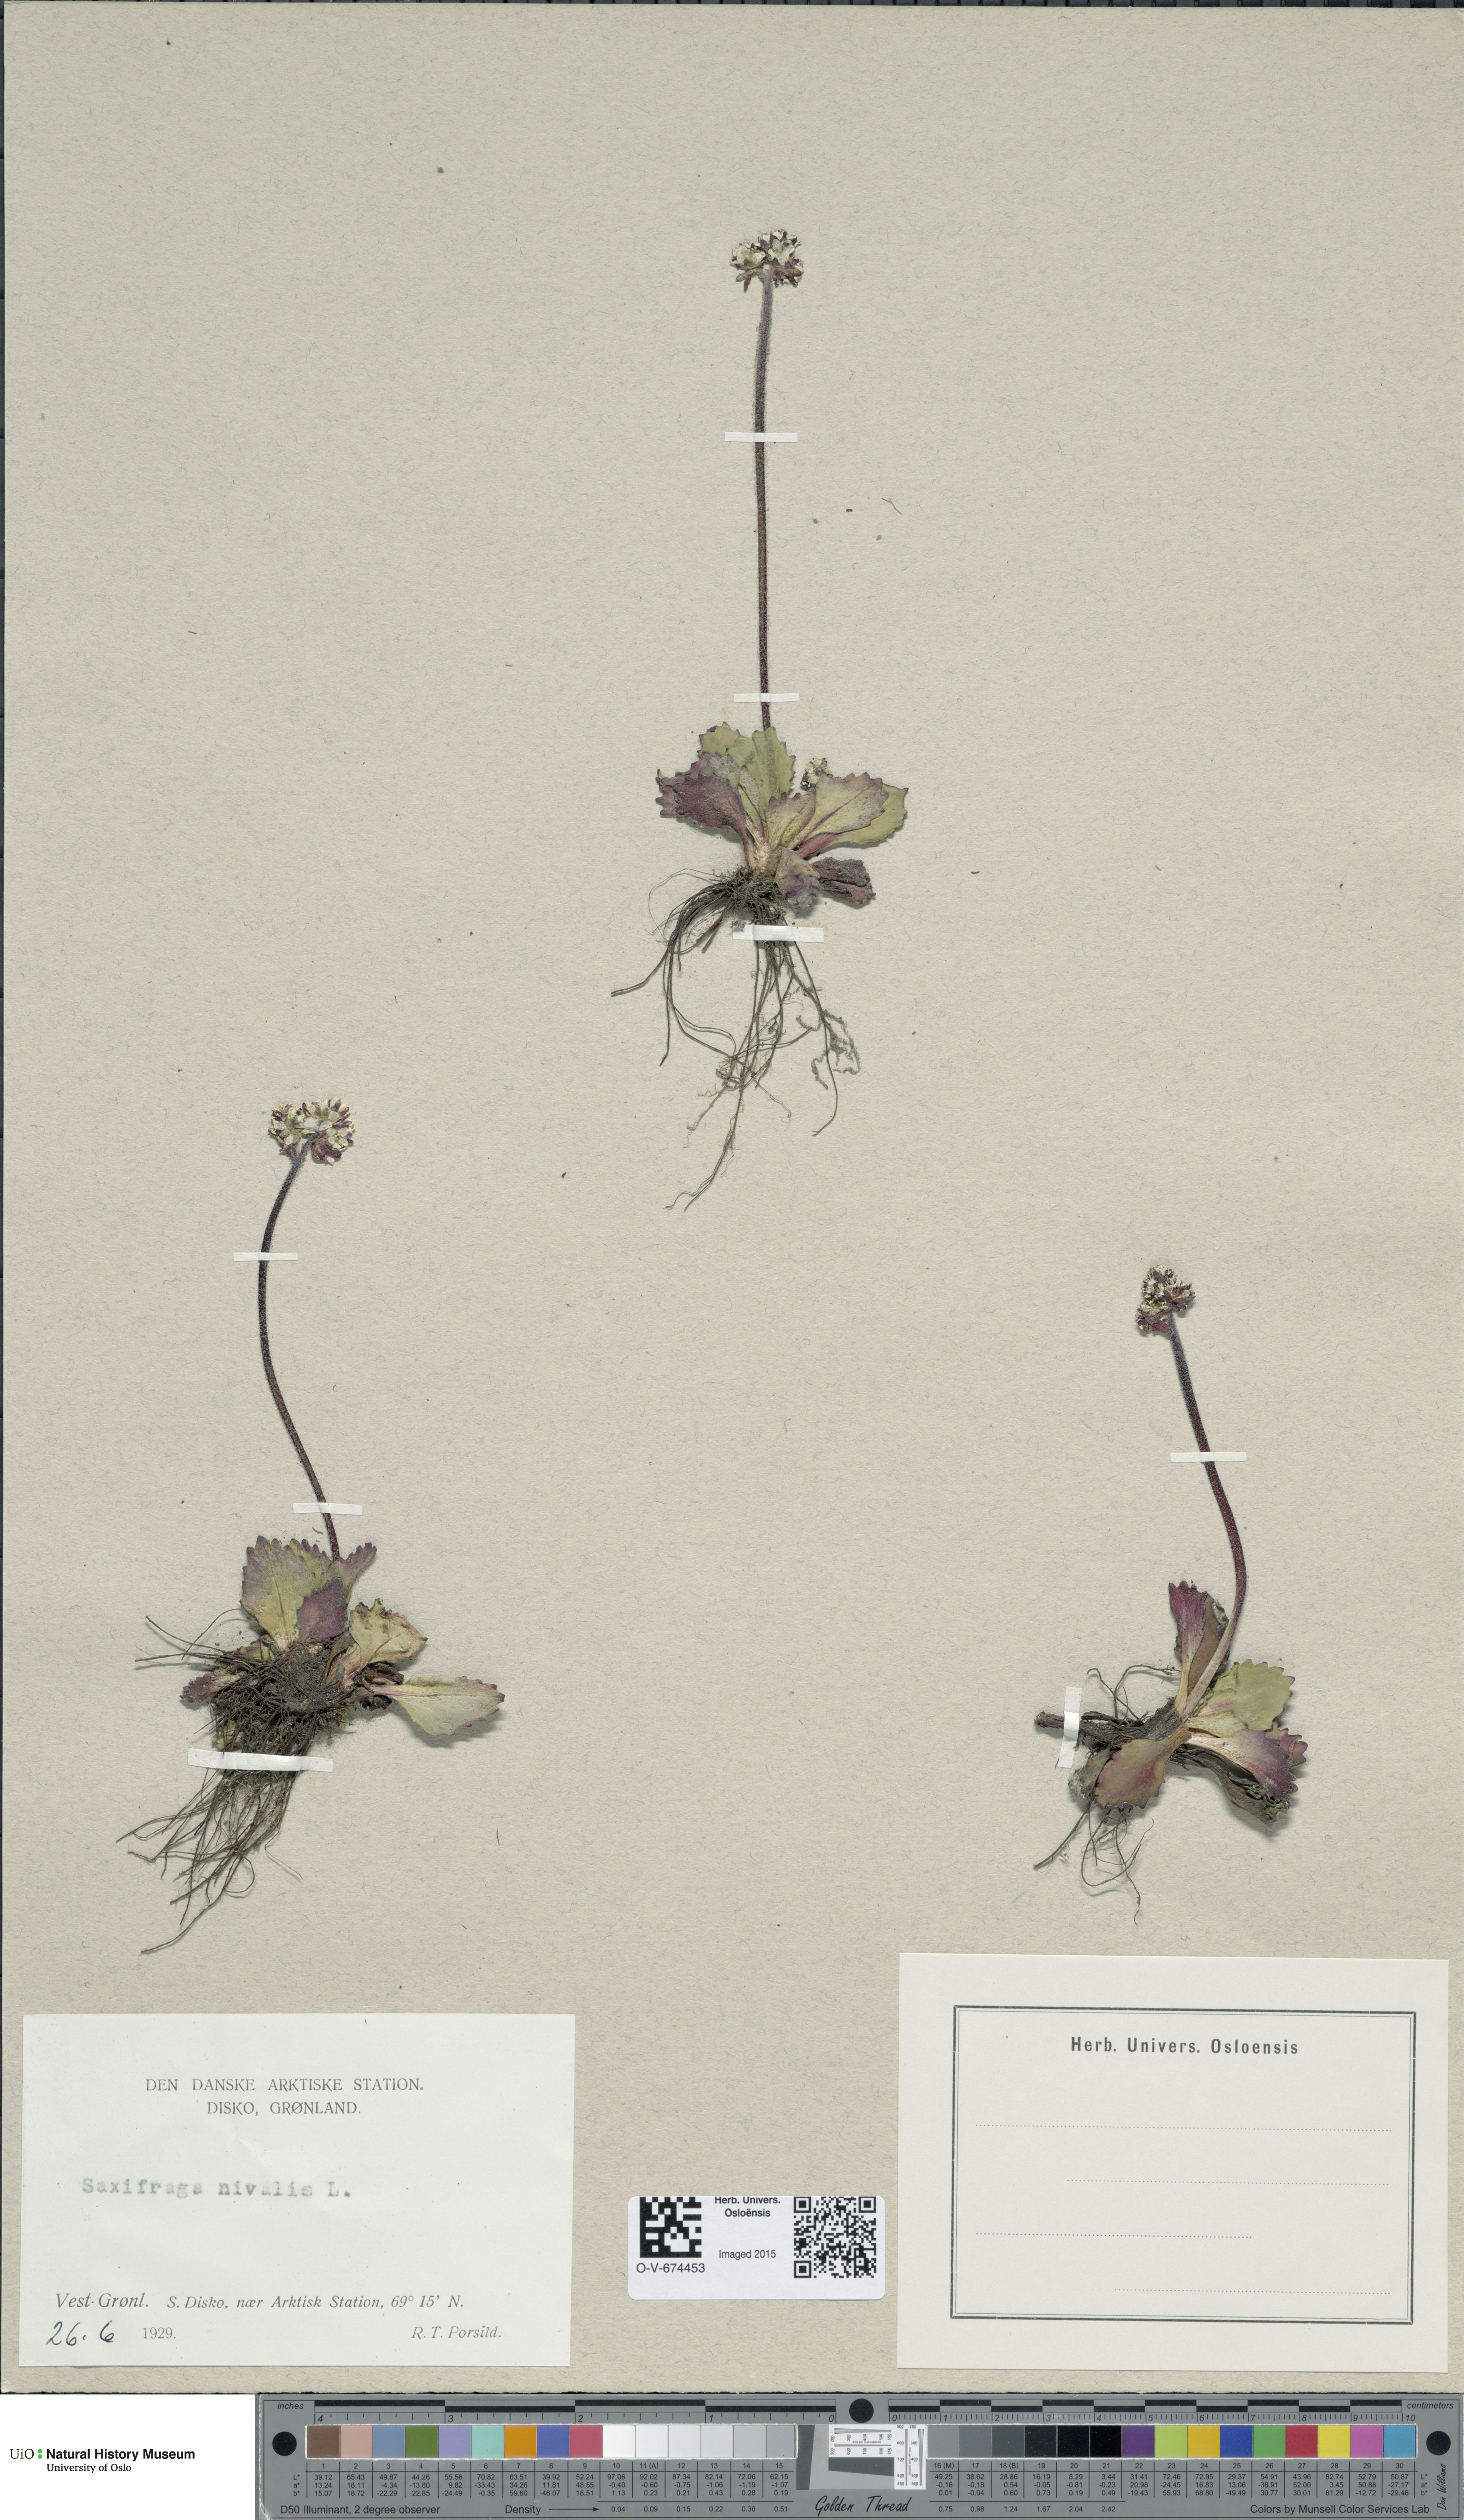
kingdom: Plantae
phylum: Tracheophyta
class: Magnoliopsida
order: Saxifragales
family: Saxifragaceae
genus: Micranthes
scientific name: Micranthes nivalis
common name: Alpine saxifrage
